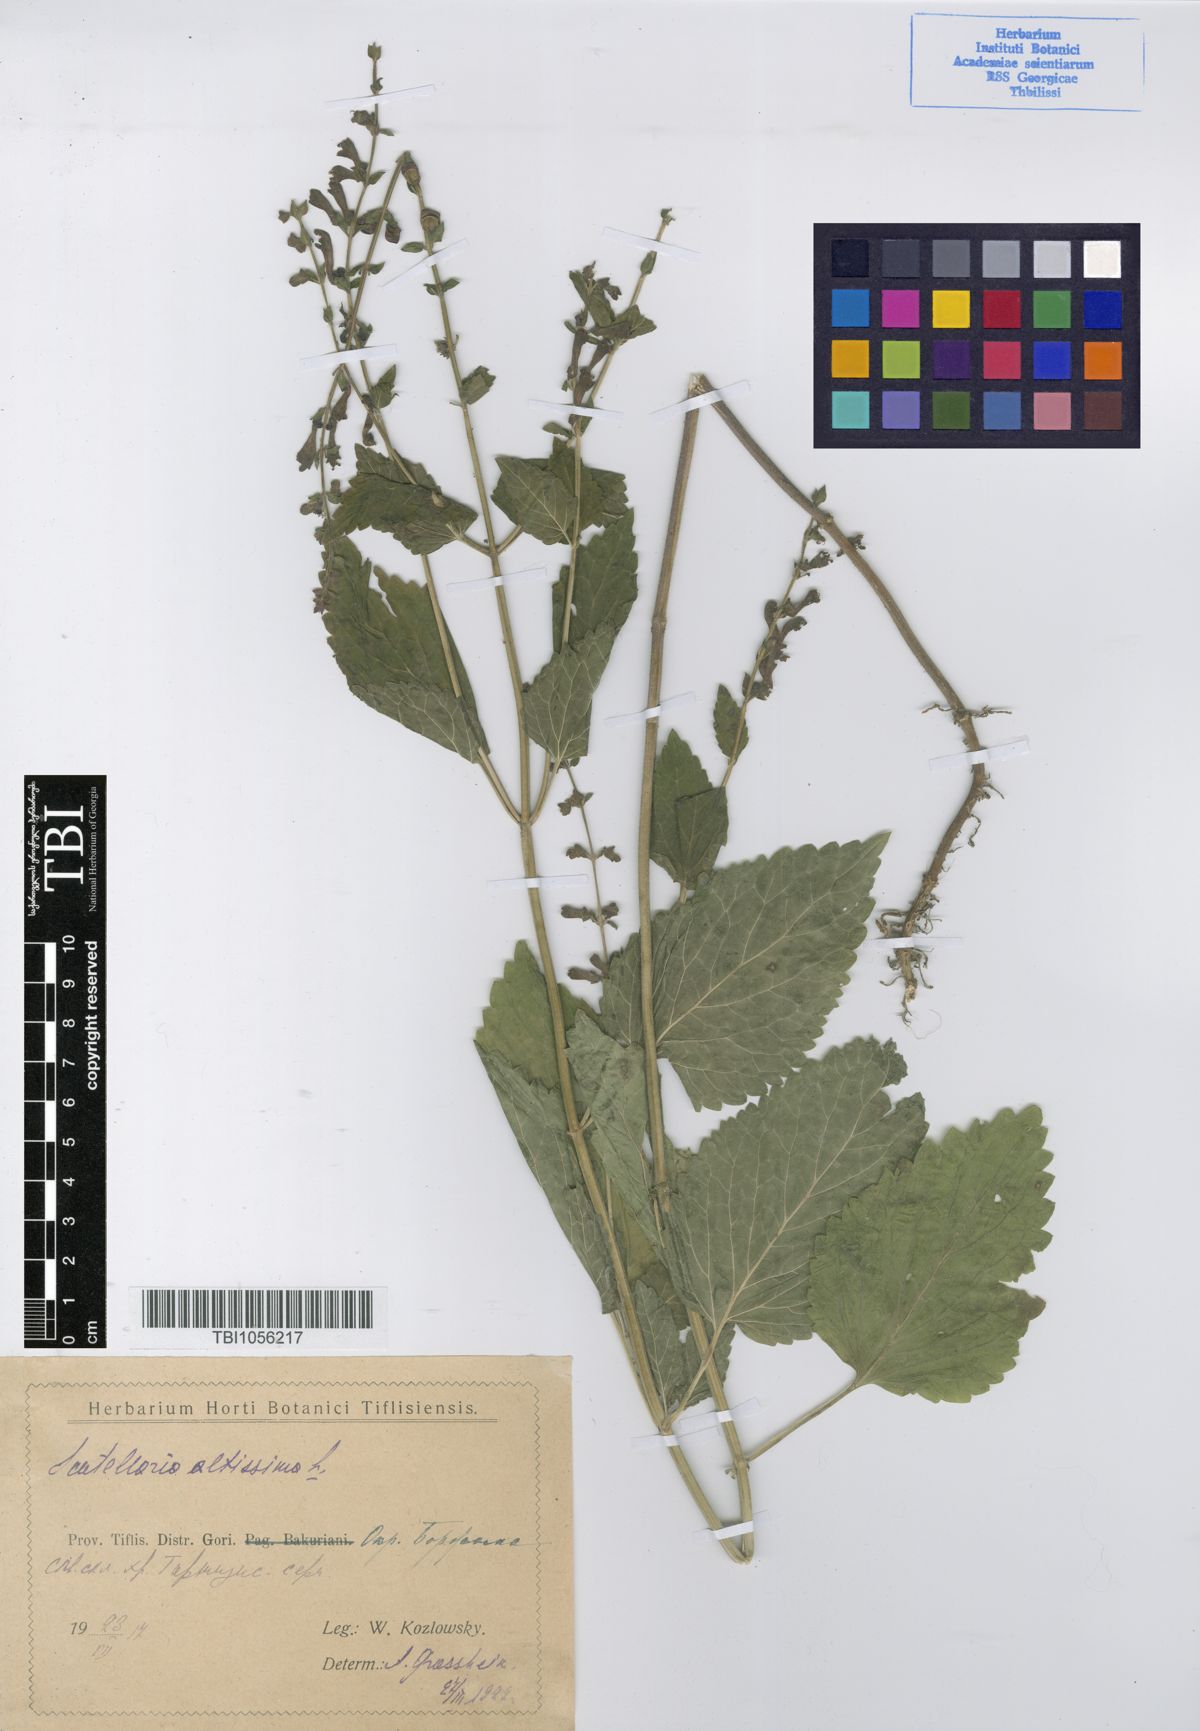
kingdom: Plantae
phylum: Tracheophyta
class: Magnoliopsida
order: Lamiales
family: Lamiaceae
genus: Scutellaria
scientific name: Scutellaria altissima
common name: Somerset skullcap
